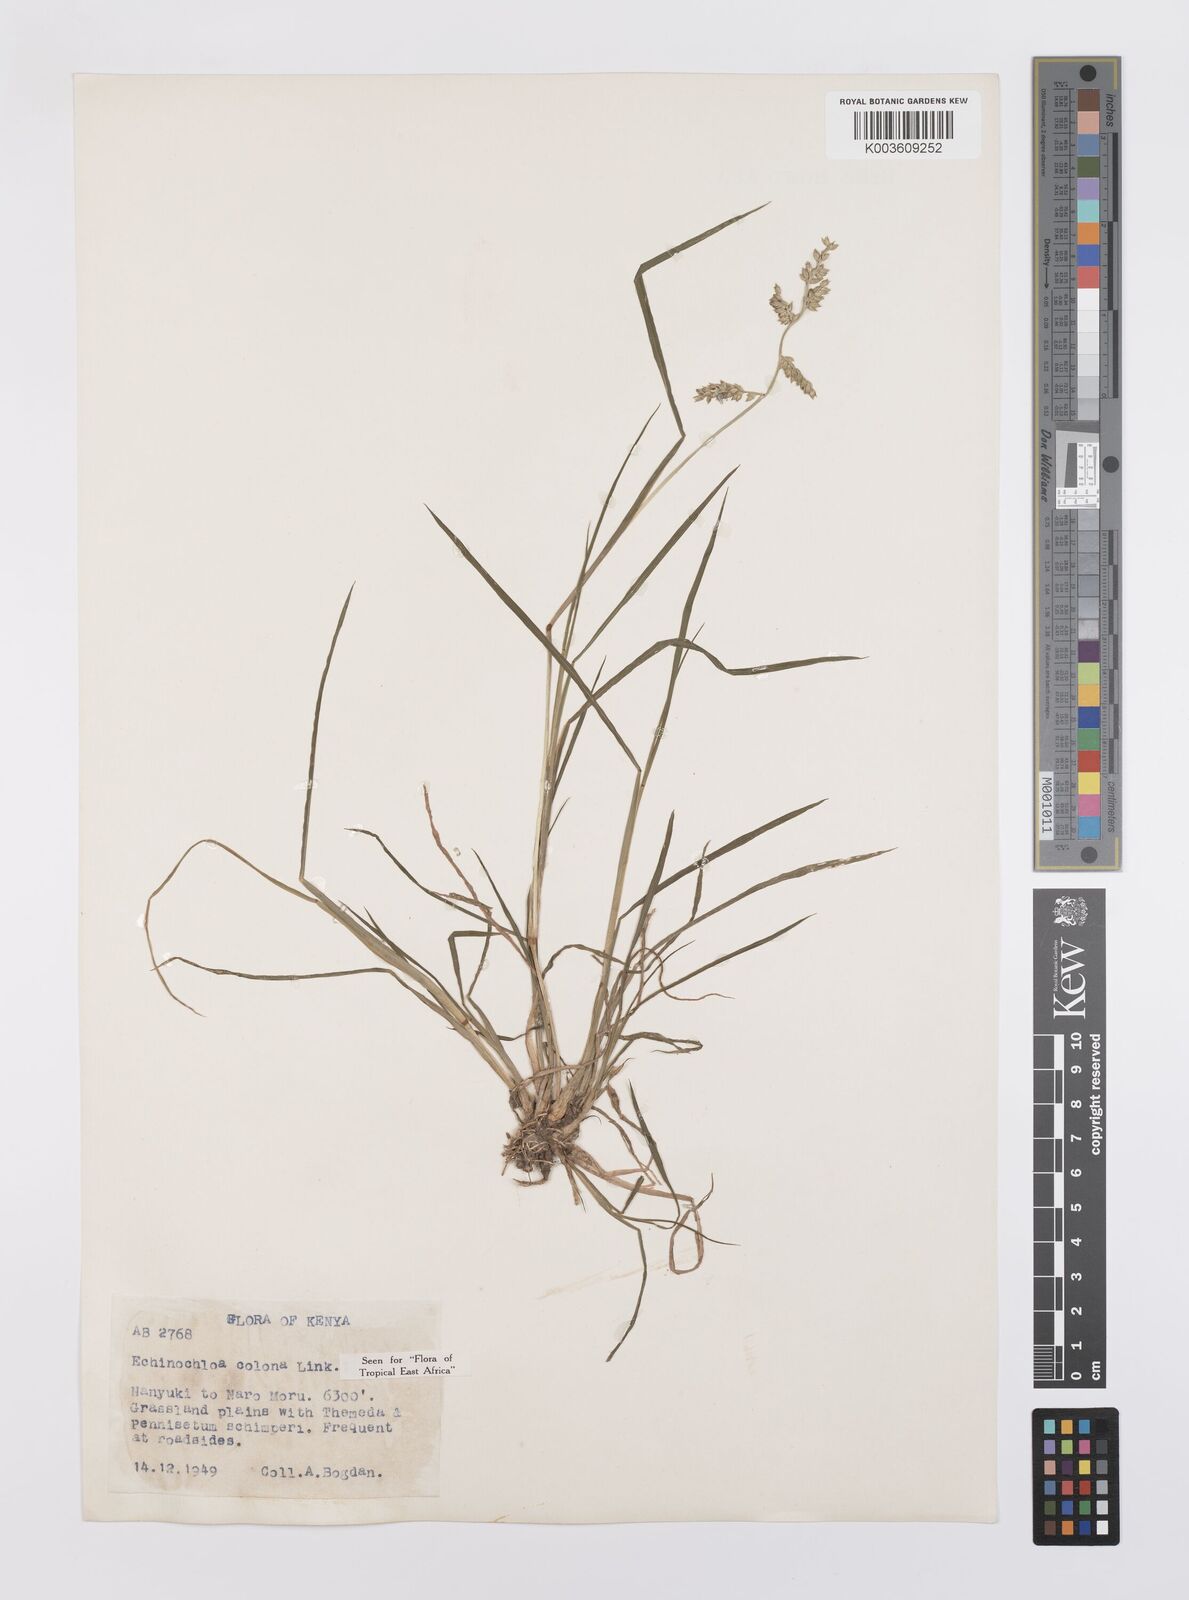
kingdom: Plantae
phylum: Tracheophyta
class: Liliopsida
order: Poales
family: Poaceae
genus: Echinochloa
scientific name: Echinochloa colonum
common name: Jungle rice
